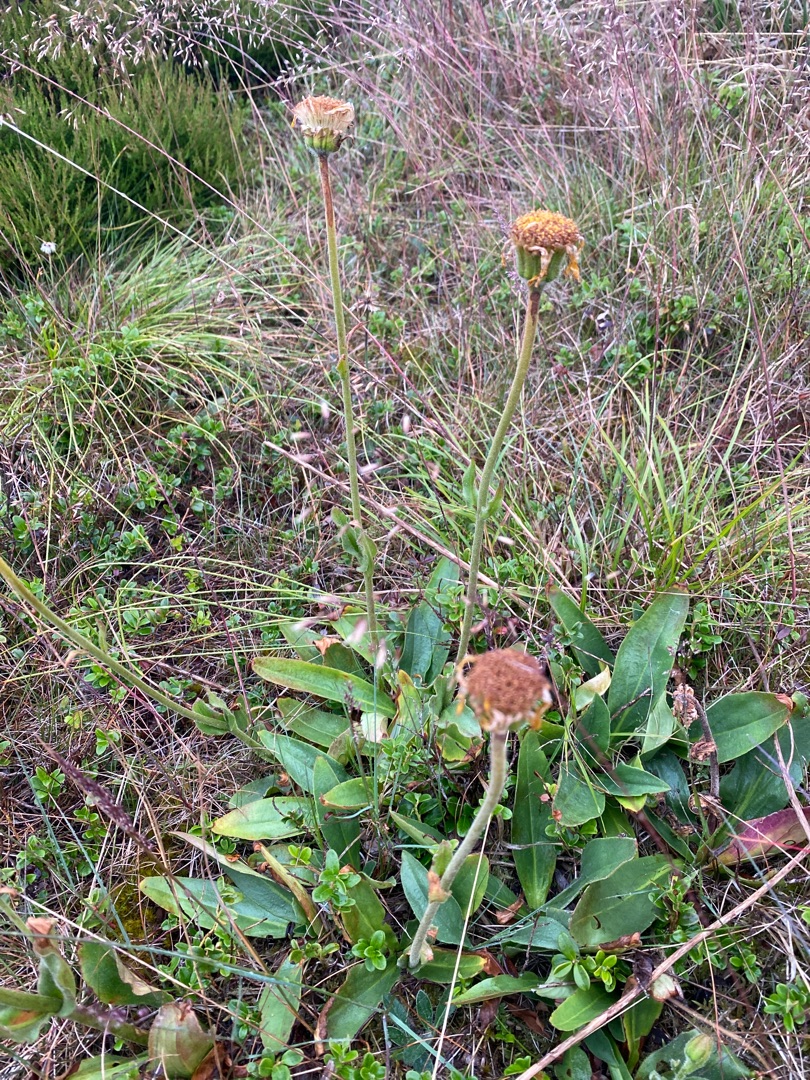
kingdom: Plantae
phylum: Tracheophyta
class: Magnoliopsida
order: Asterales
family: Asteraceae
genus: Arnica
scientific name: Arnica montana
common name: Guldblomme
